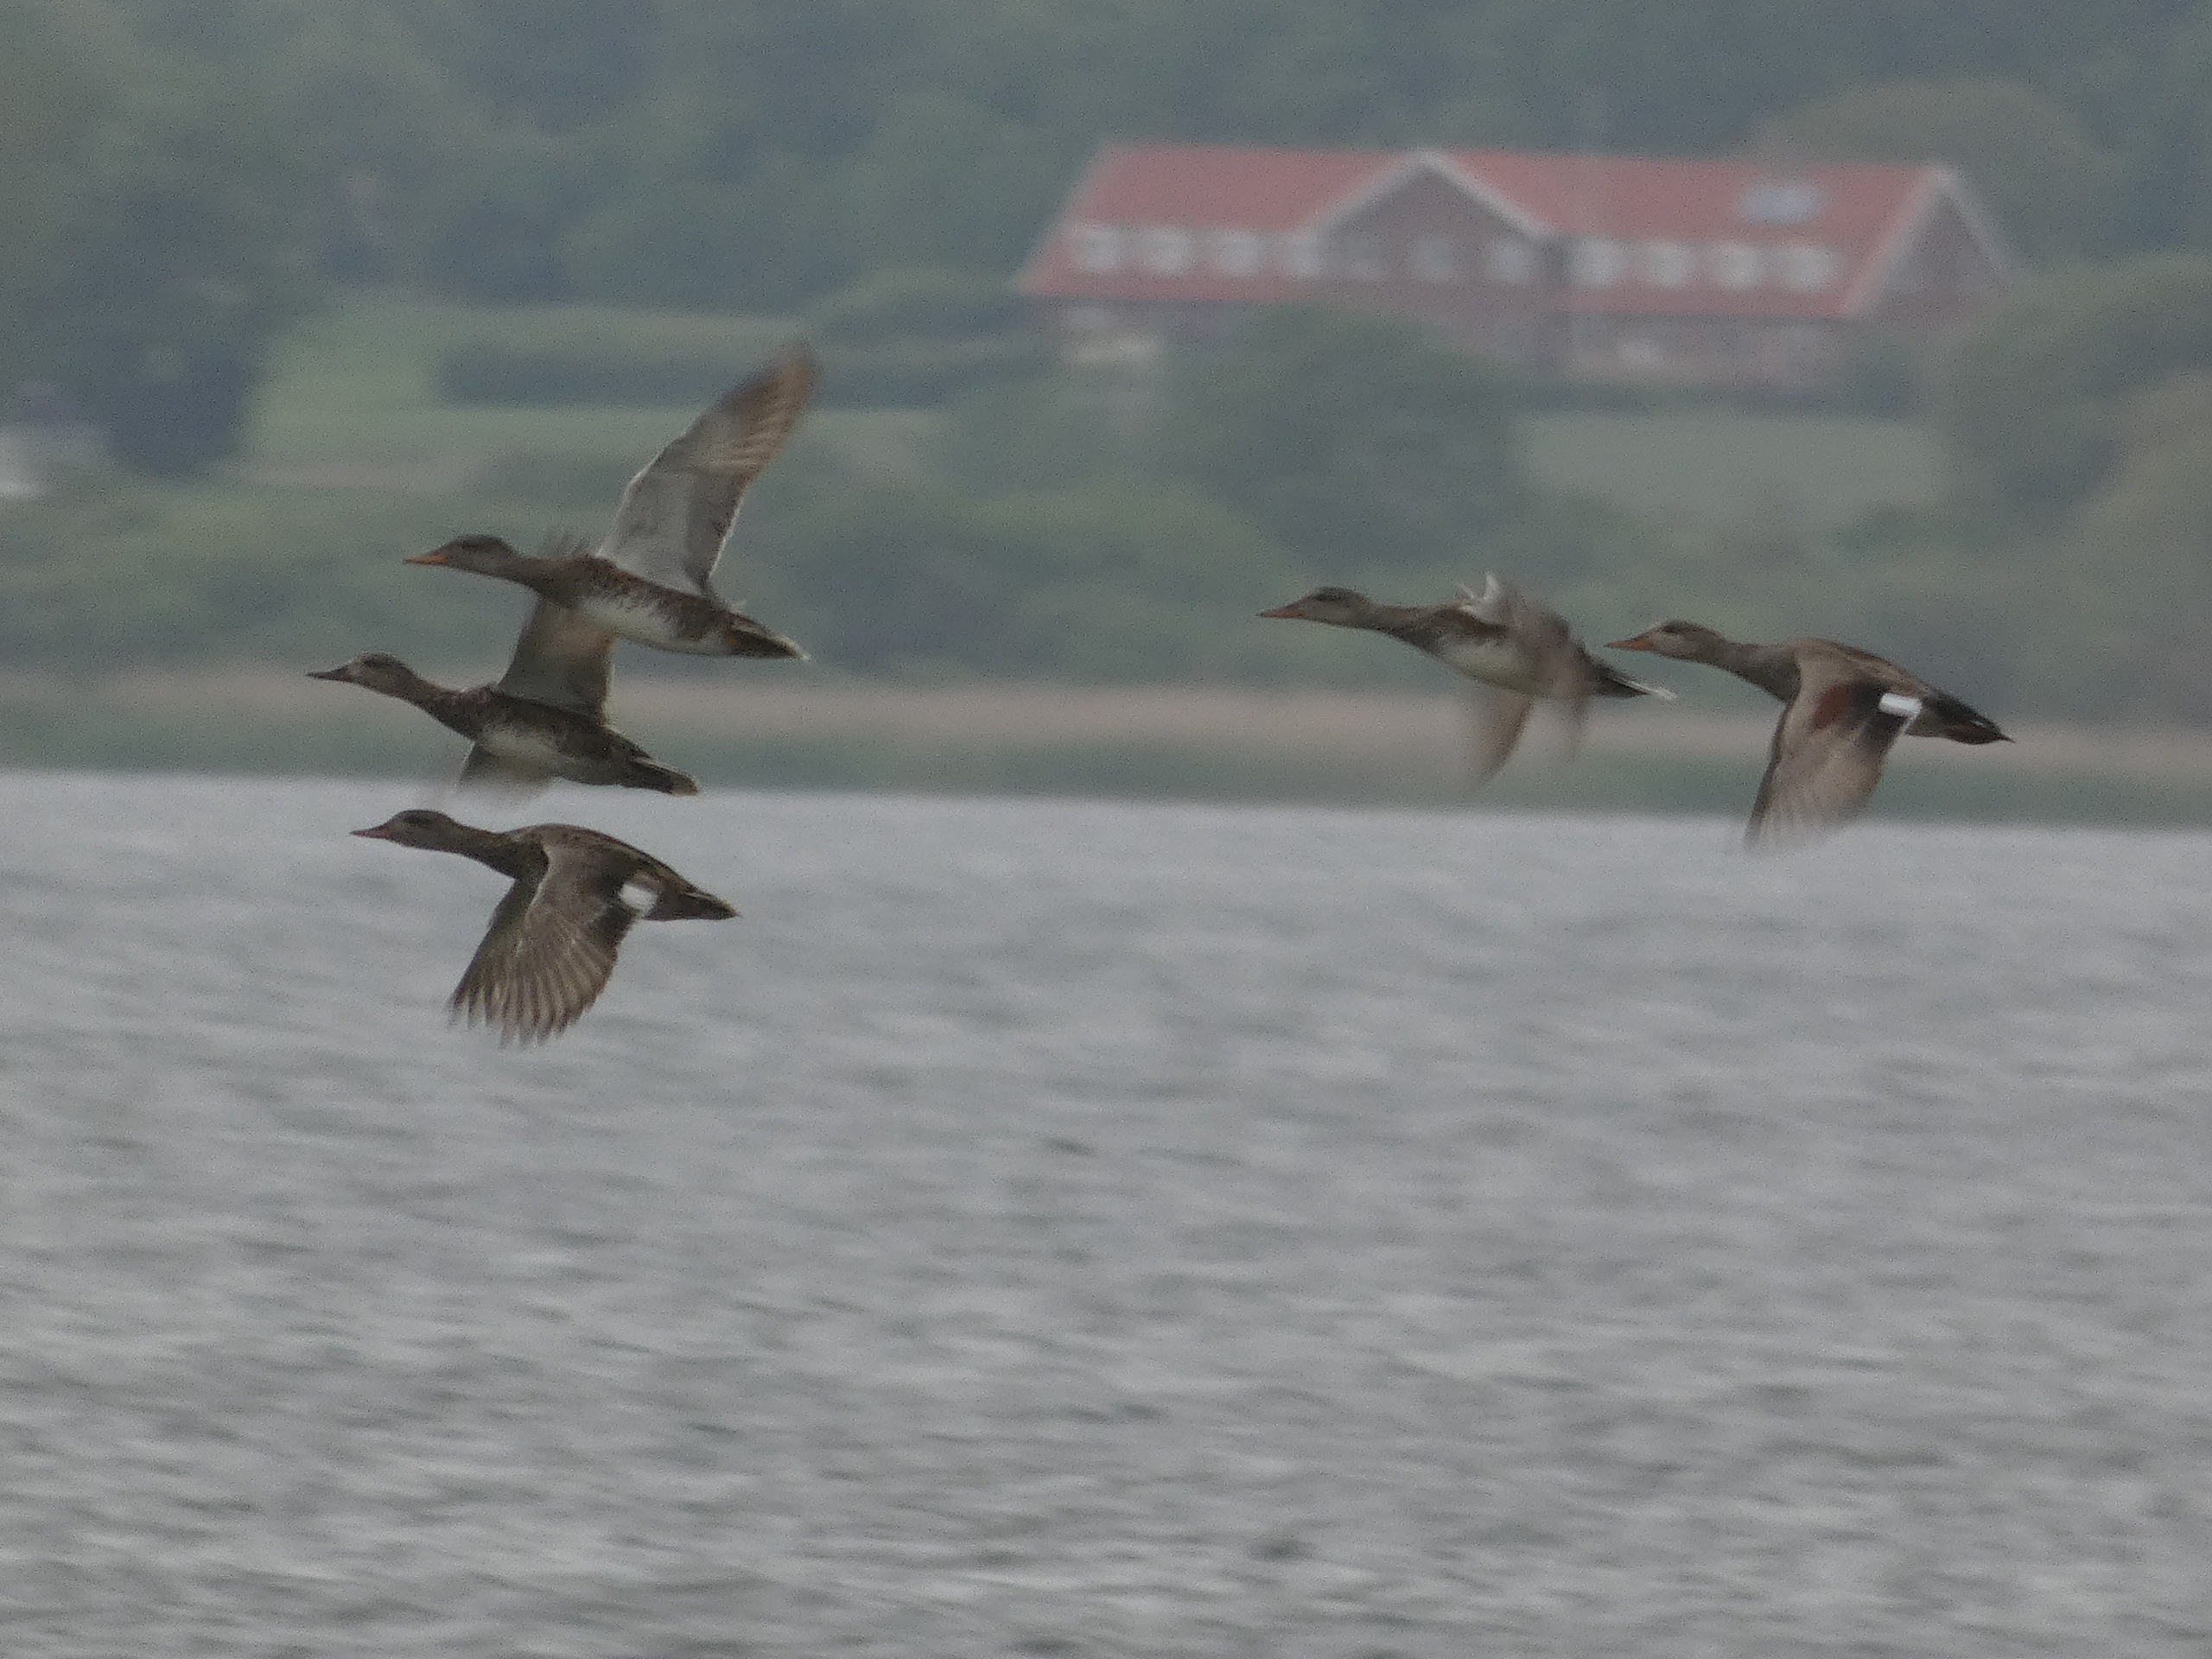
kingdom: Animalia
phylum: Chordata
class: Aves
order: Anseriformes
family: Anatidae
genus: Mareca
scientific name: Mareca strepera
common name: Knarand
